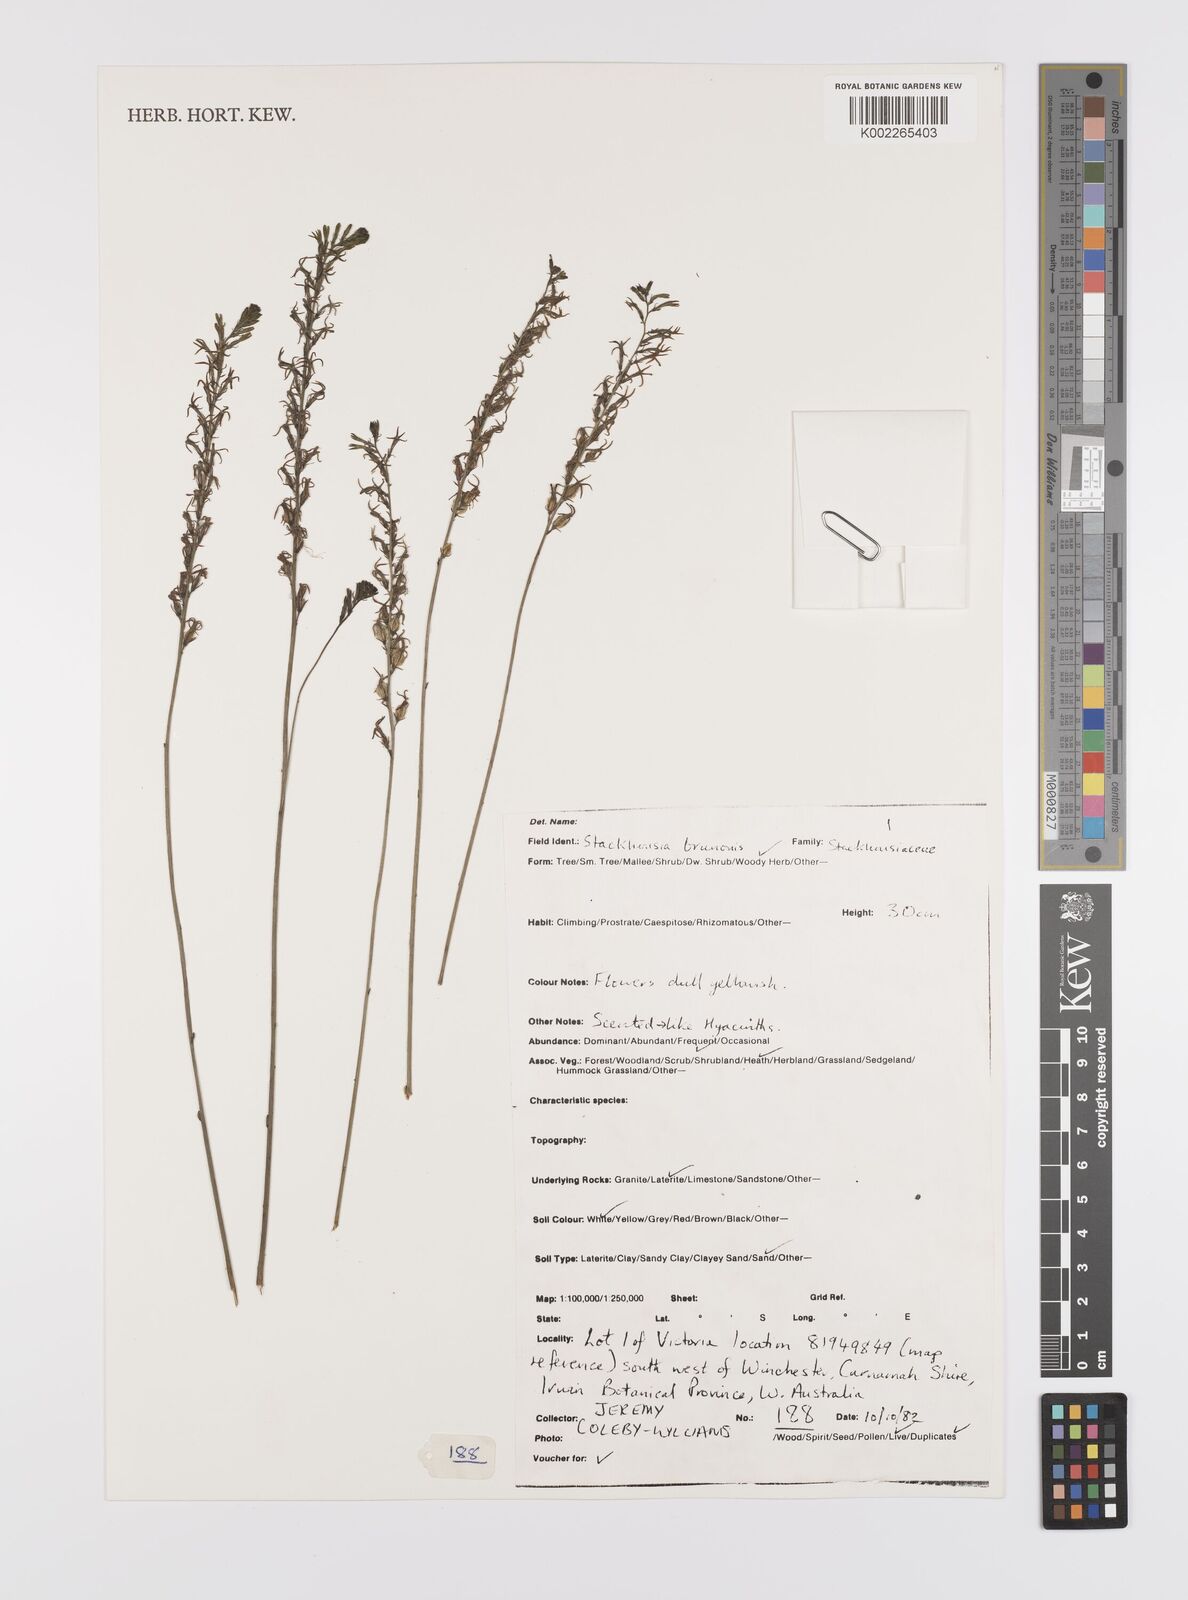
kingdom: Plantae
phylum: Tracheophyta
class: Magnoliopsida
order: Celastrales
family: Celastraceae
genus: Tripterococcus
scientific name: Tripterococcus brunonis
